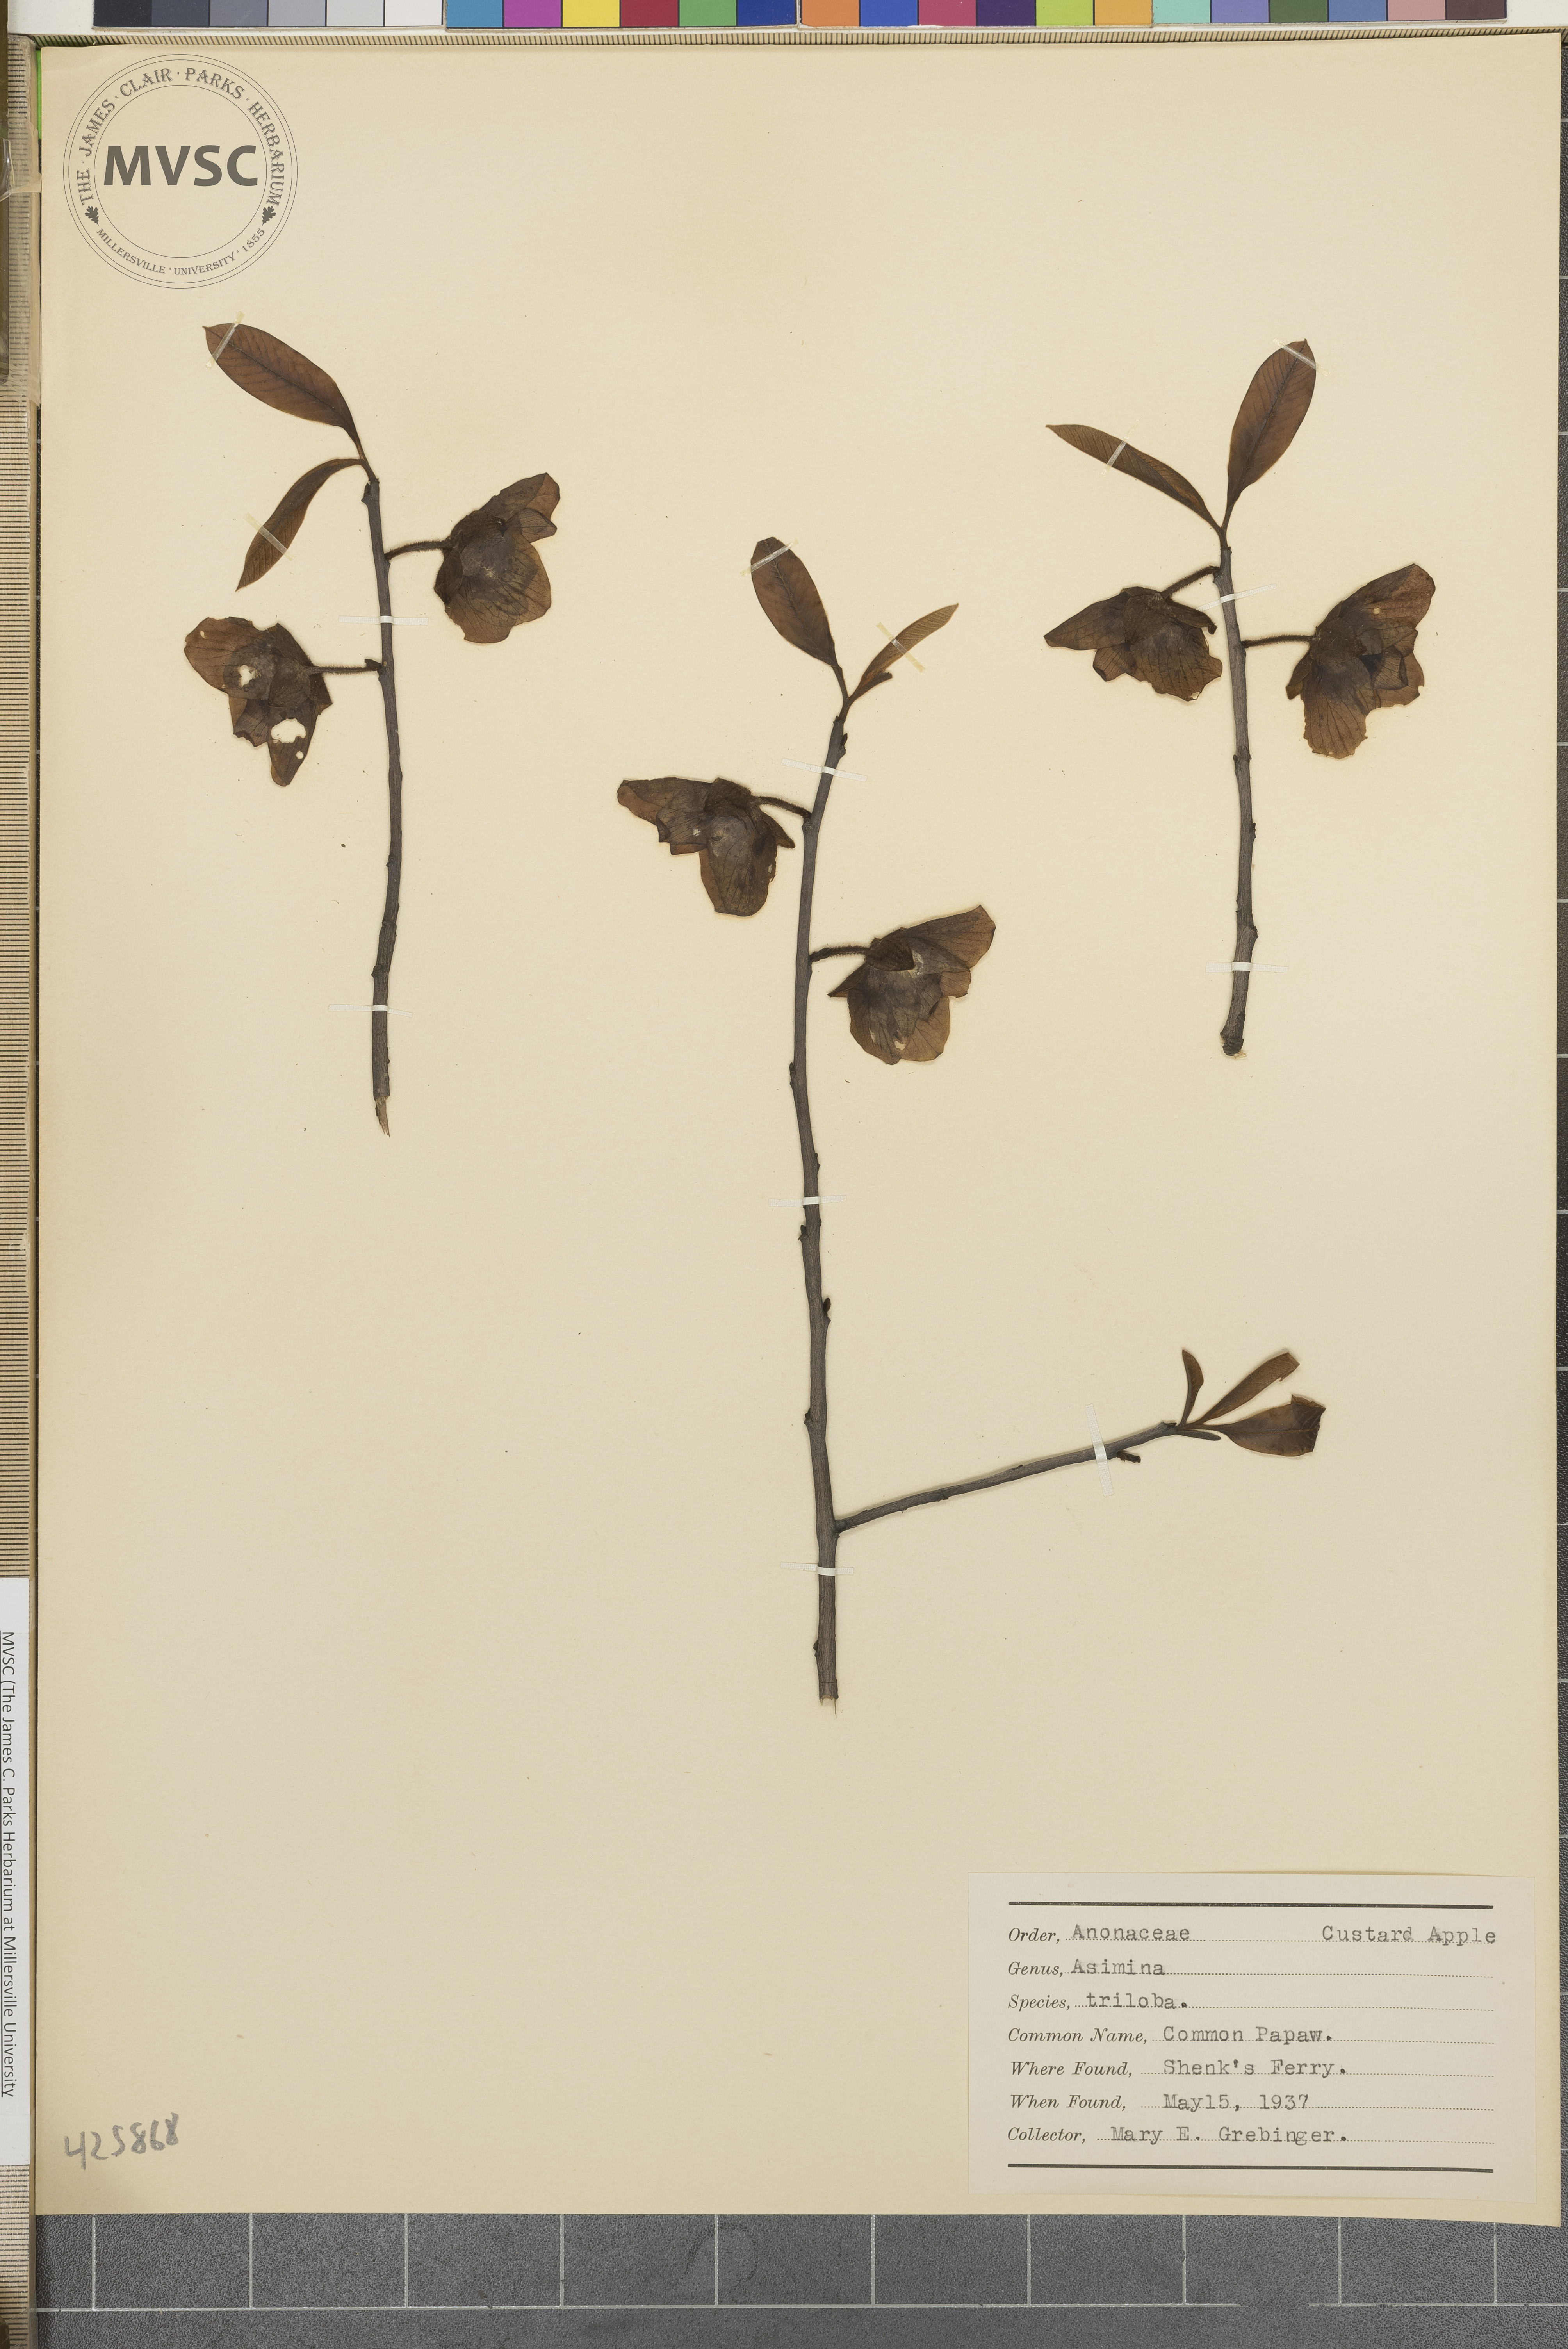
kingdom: Plantae
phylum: Tracheophyta
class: Magnoliopsida
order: Magnoliales
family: Annonaceae
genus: Asimina
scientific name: Asimina triloba
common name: Common Pawpaw
